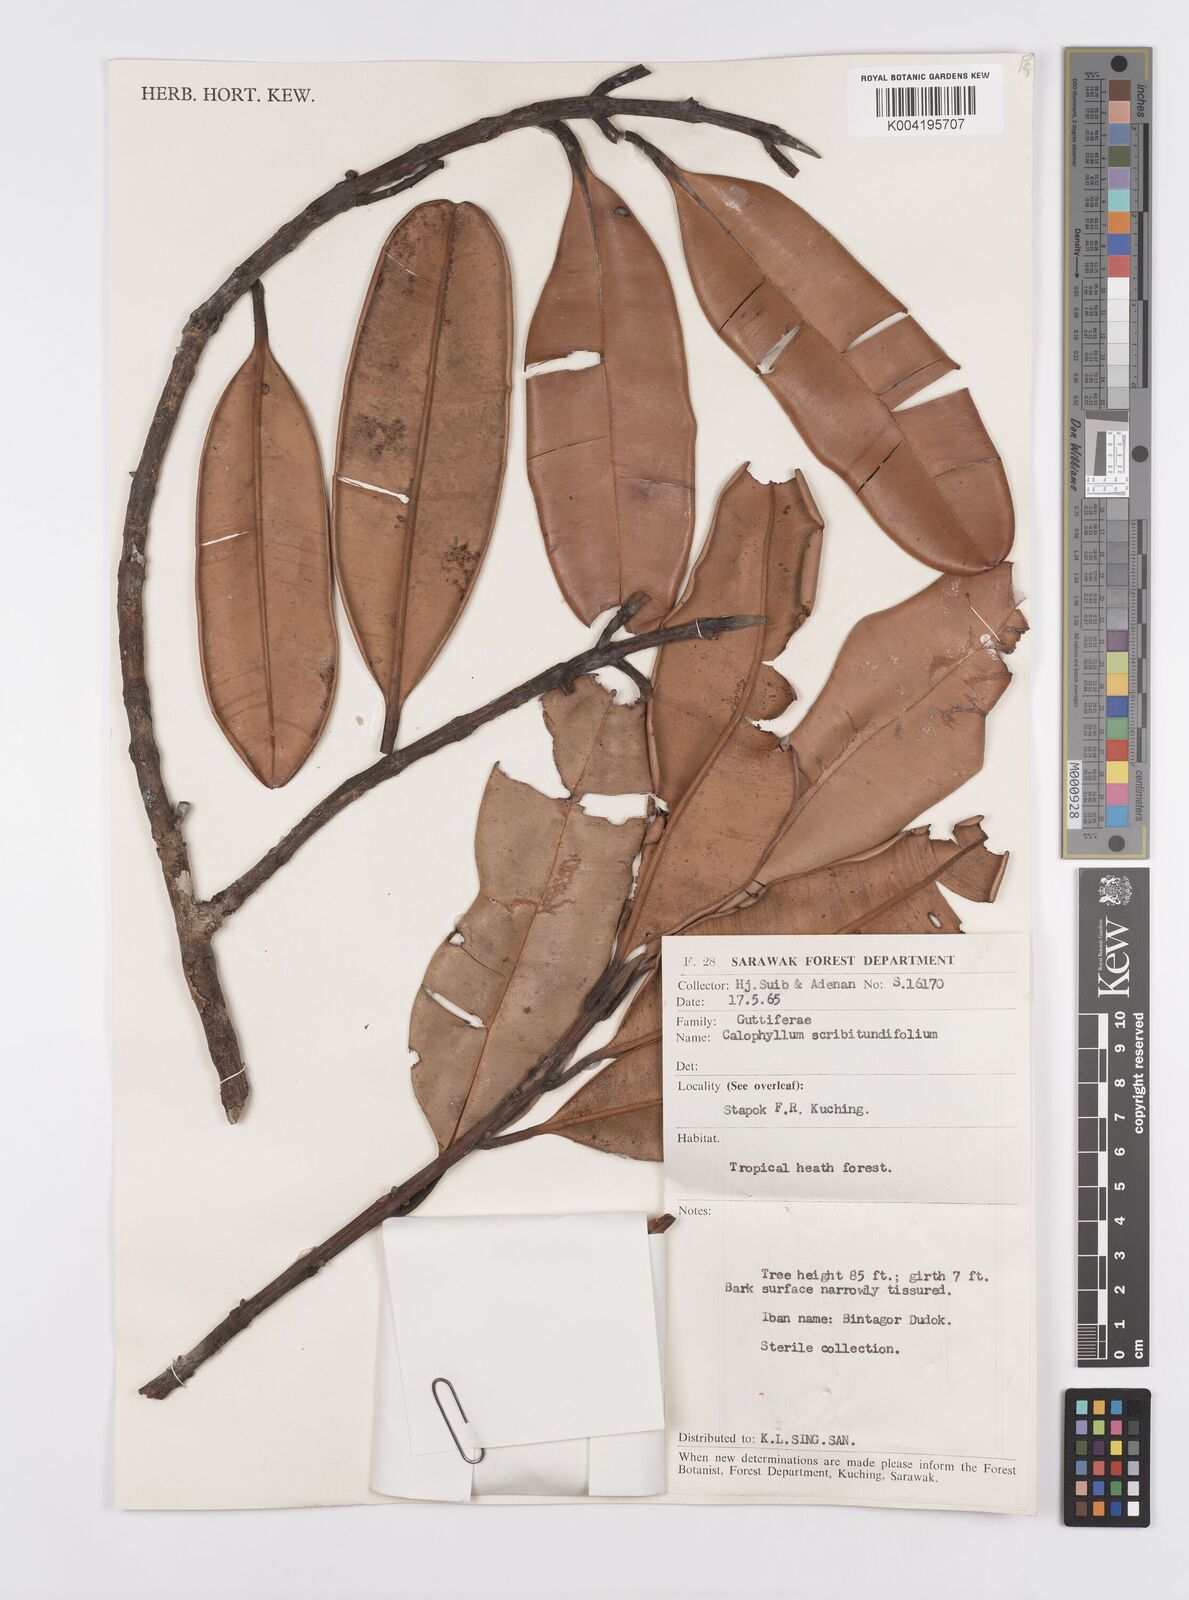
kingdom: Plantae
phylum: Tracheophyta
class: Magnoliopsida
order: Malpighiales
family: Calophyllaceae
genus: Calophyllum
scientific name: Calophyllum scriblitifolium
